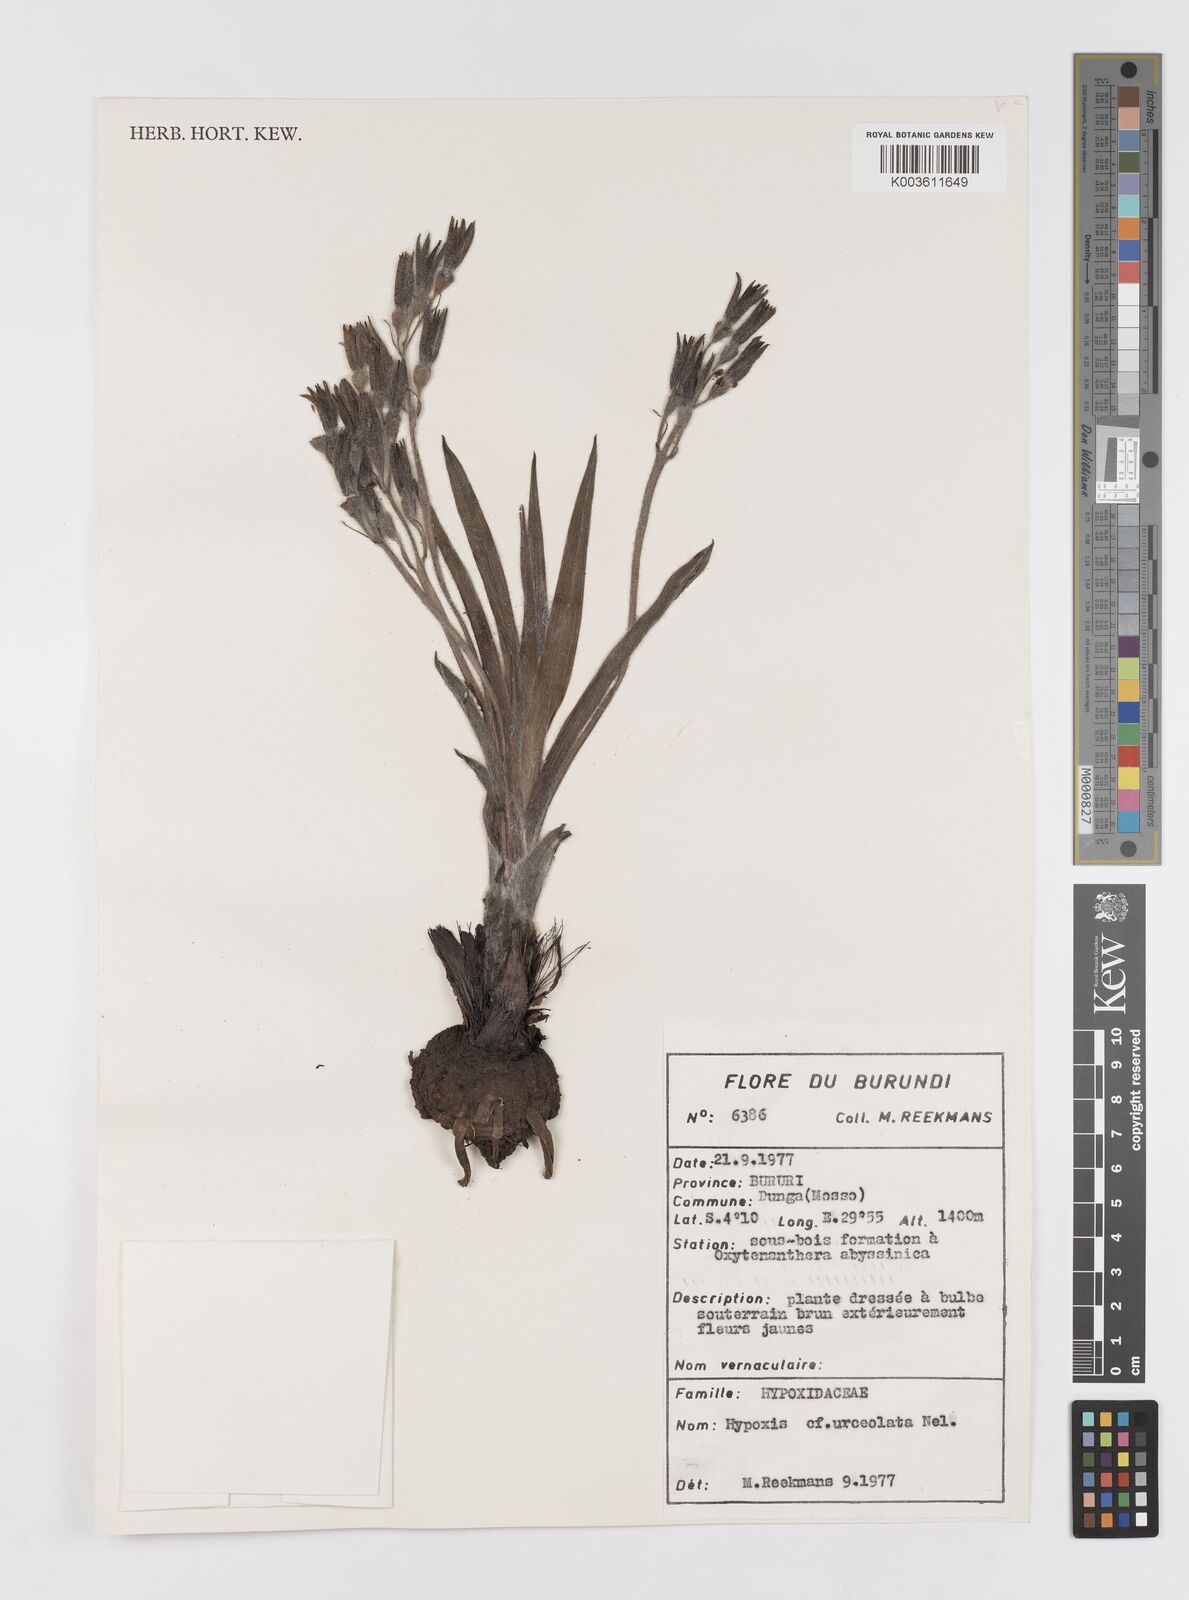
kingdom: Plantae
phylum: Tracheophyta
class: Liliopsida
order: Asparagales
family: Hypoxidaceae
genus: Hypoxis
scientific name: Hypoxis urceolata
